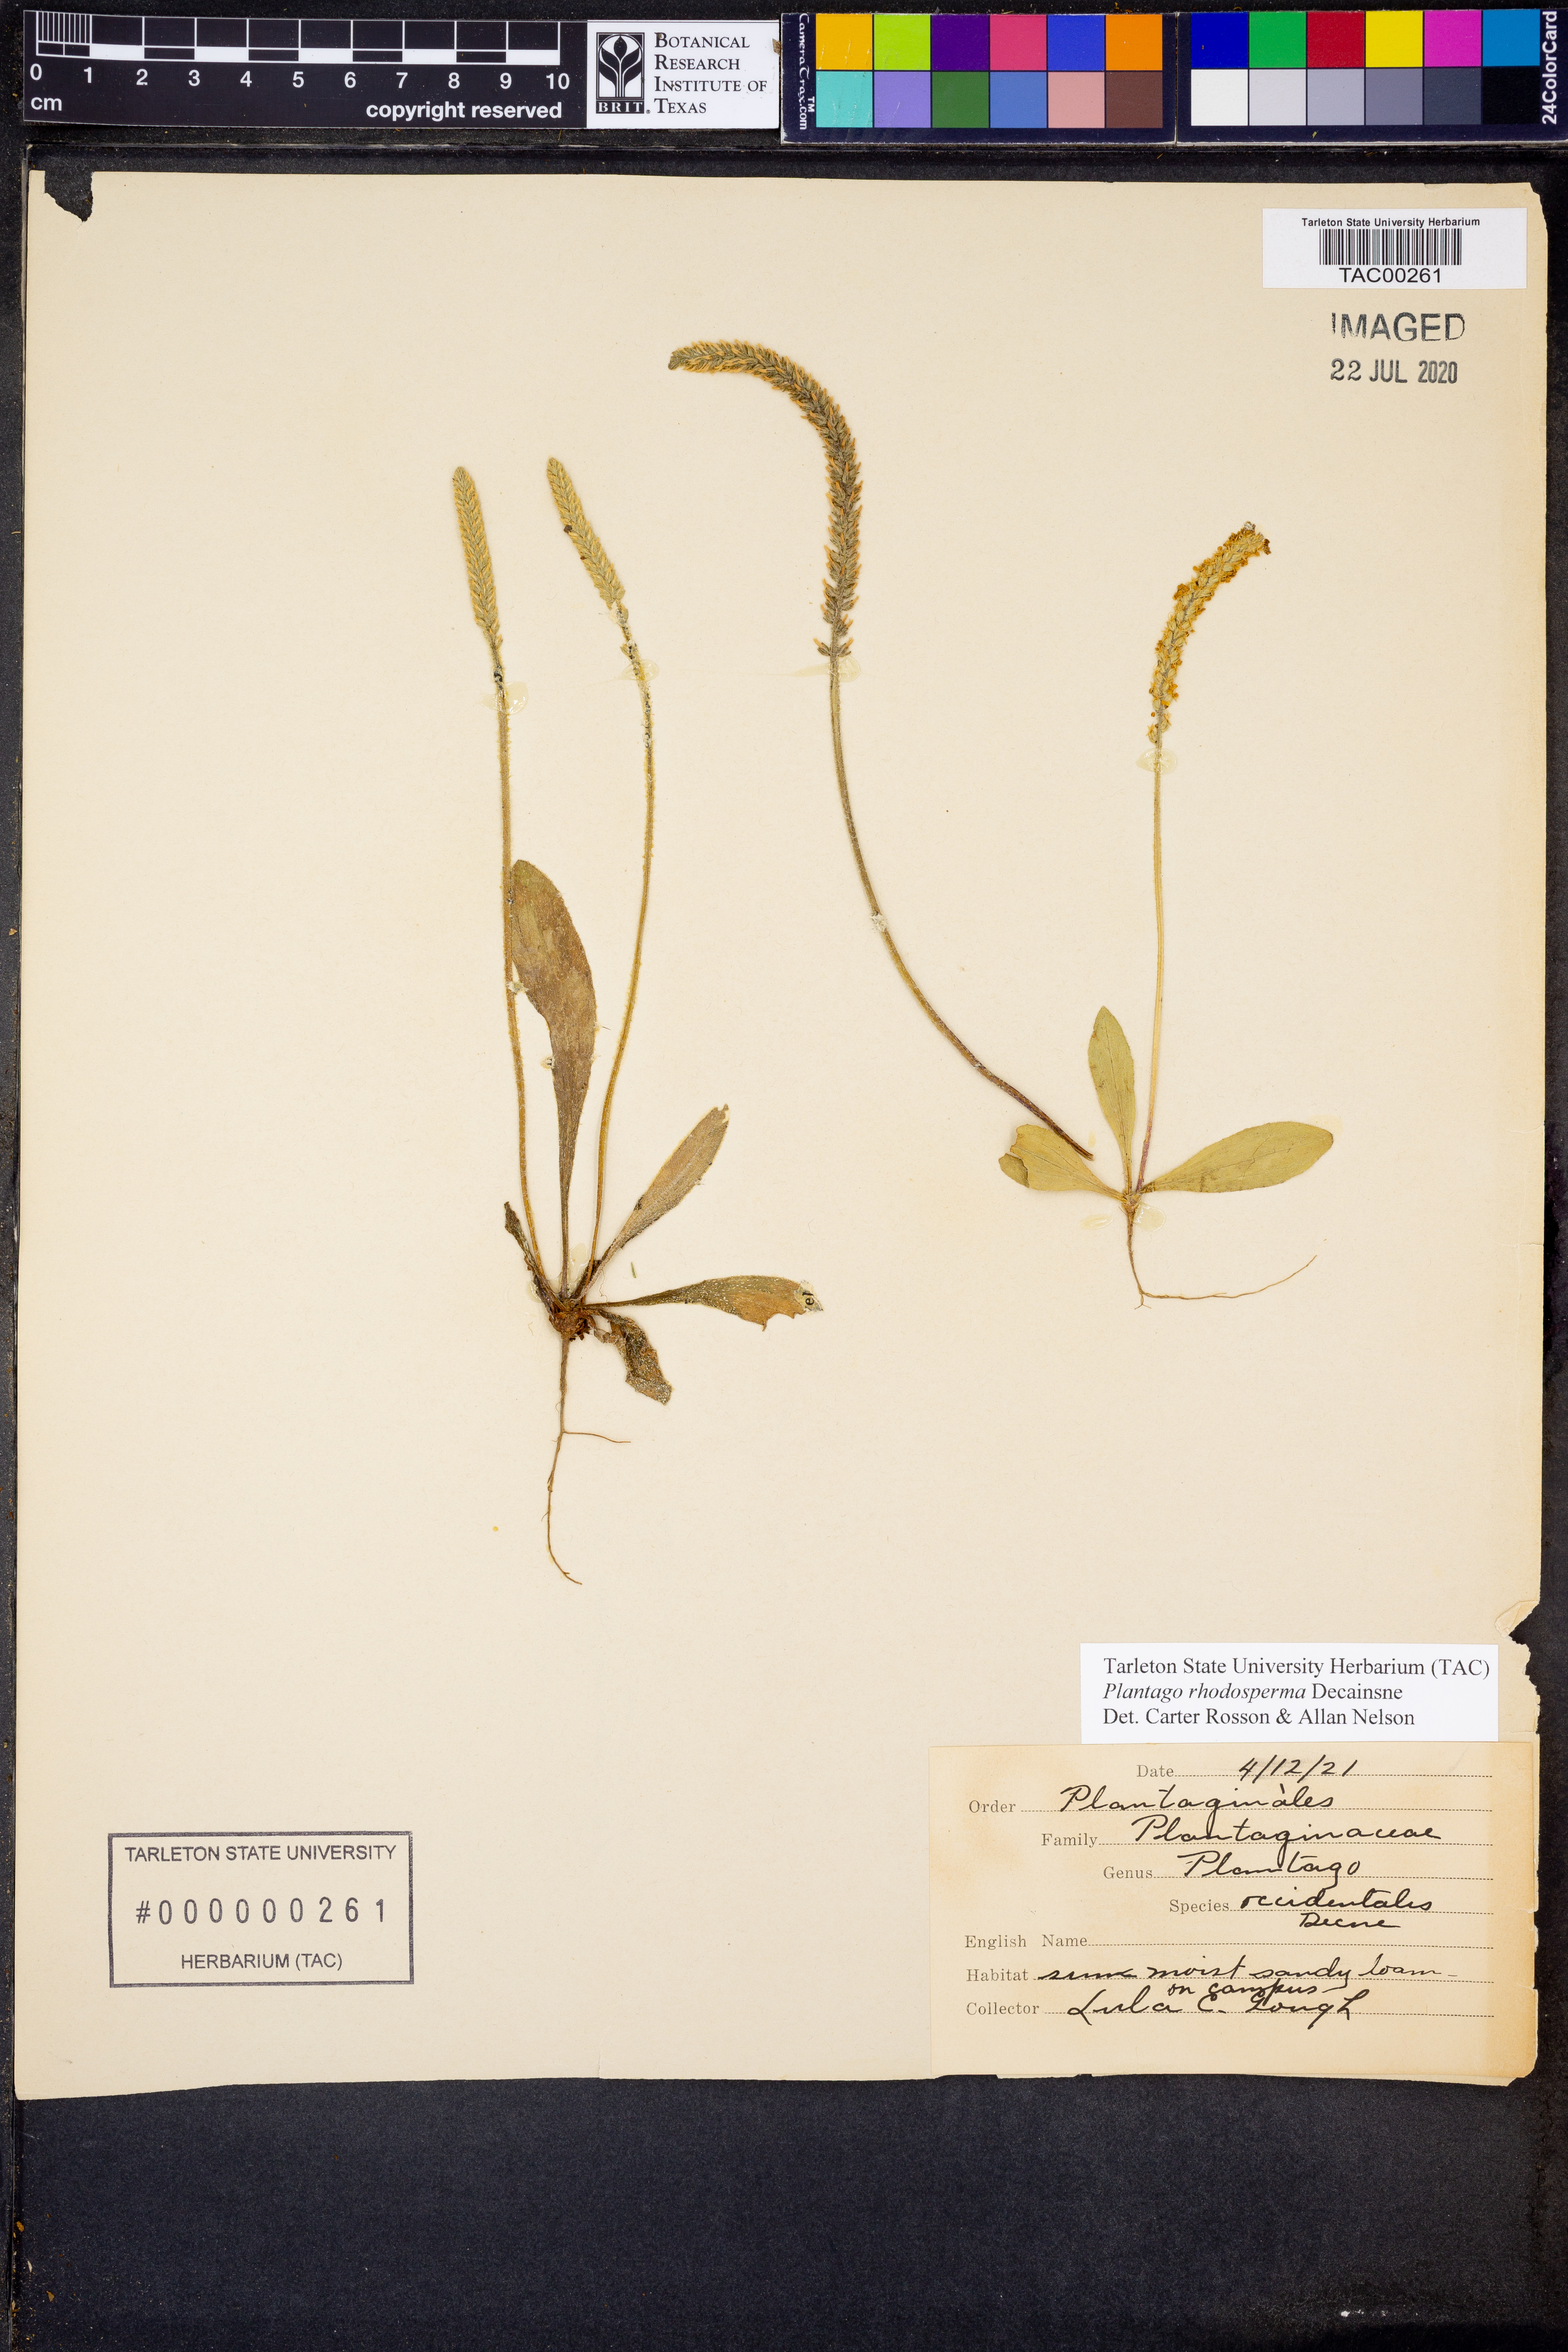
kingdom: Plantae
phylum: Tracheophyta
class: Magnoliopsida
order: Lamiales
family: Plantaginaceae
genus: Plantago
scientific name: Plantago rhodosperma
